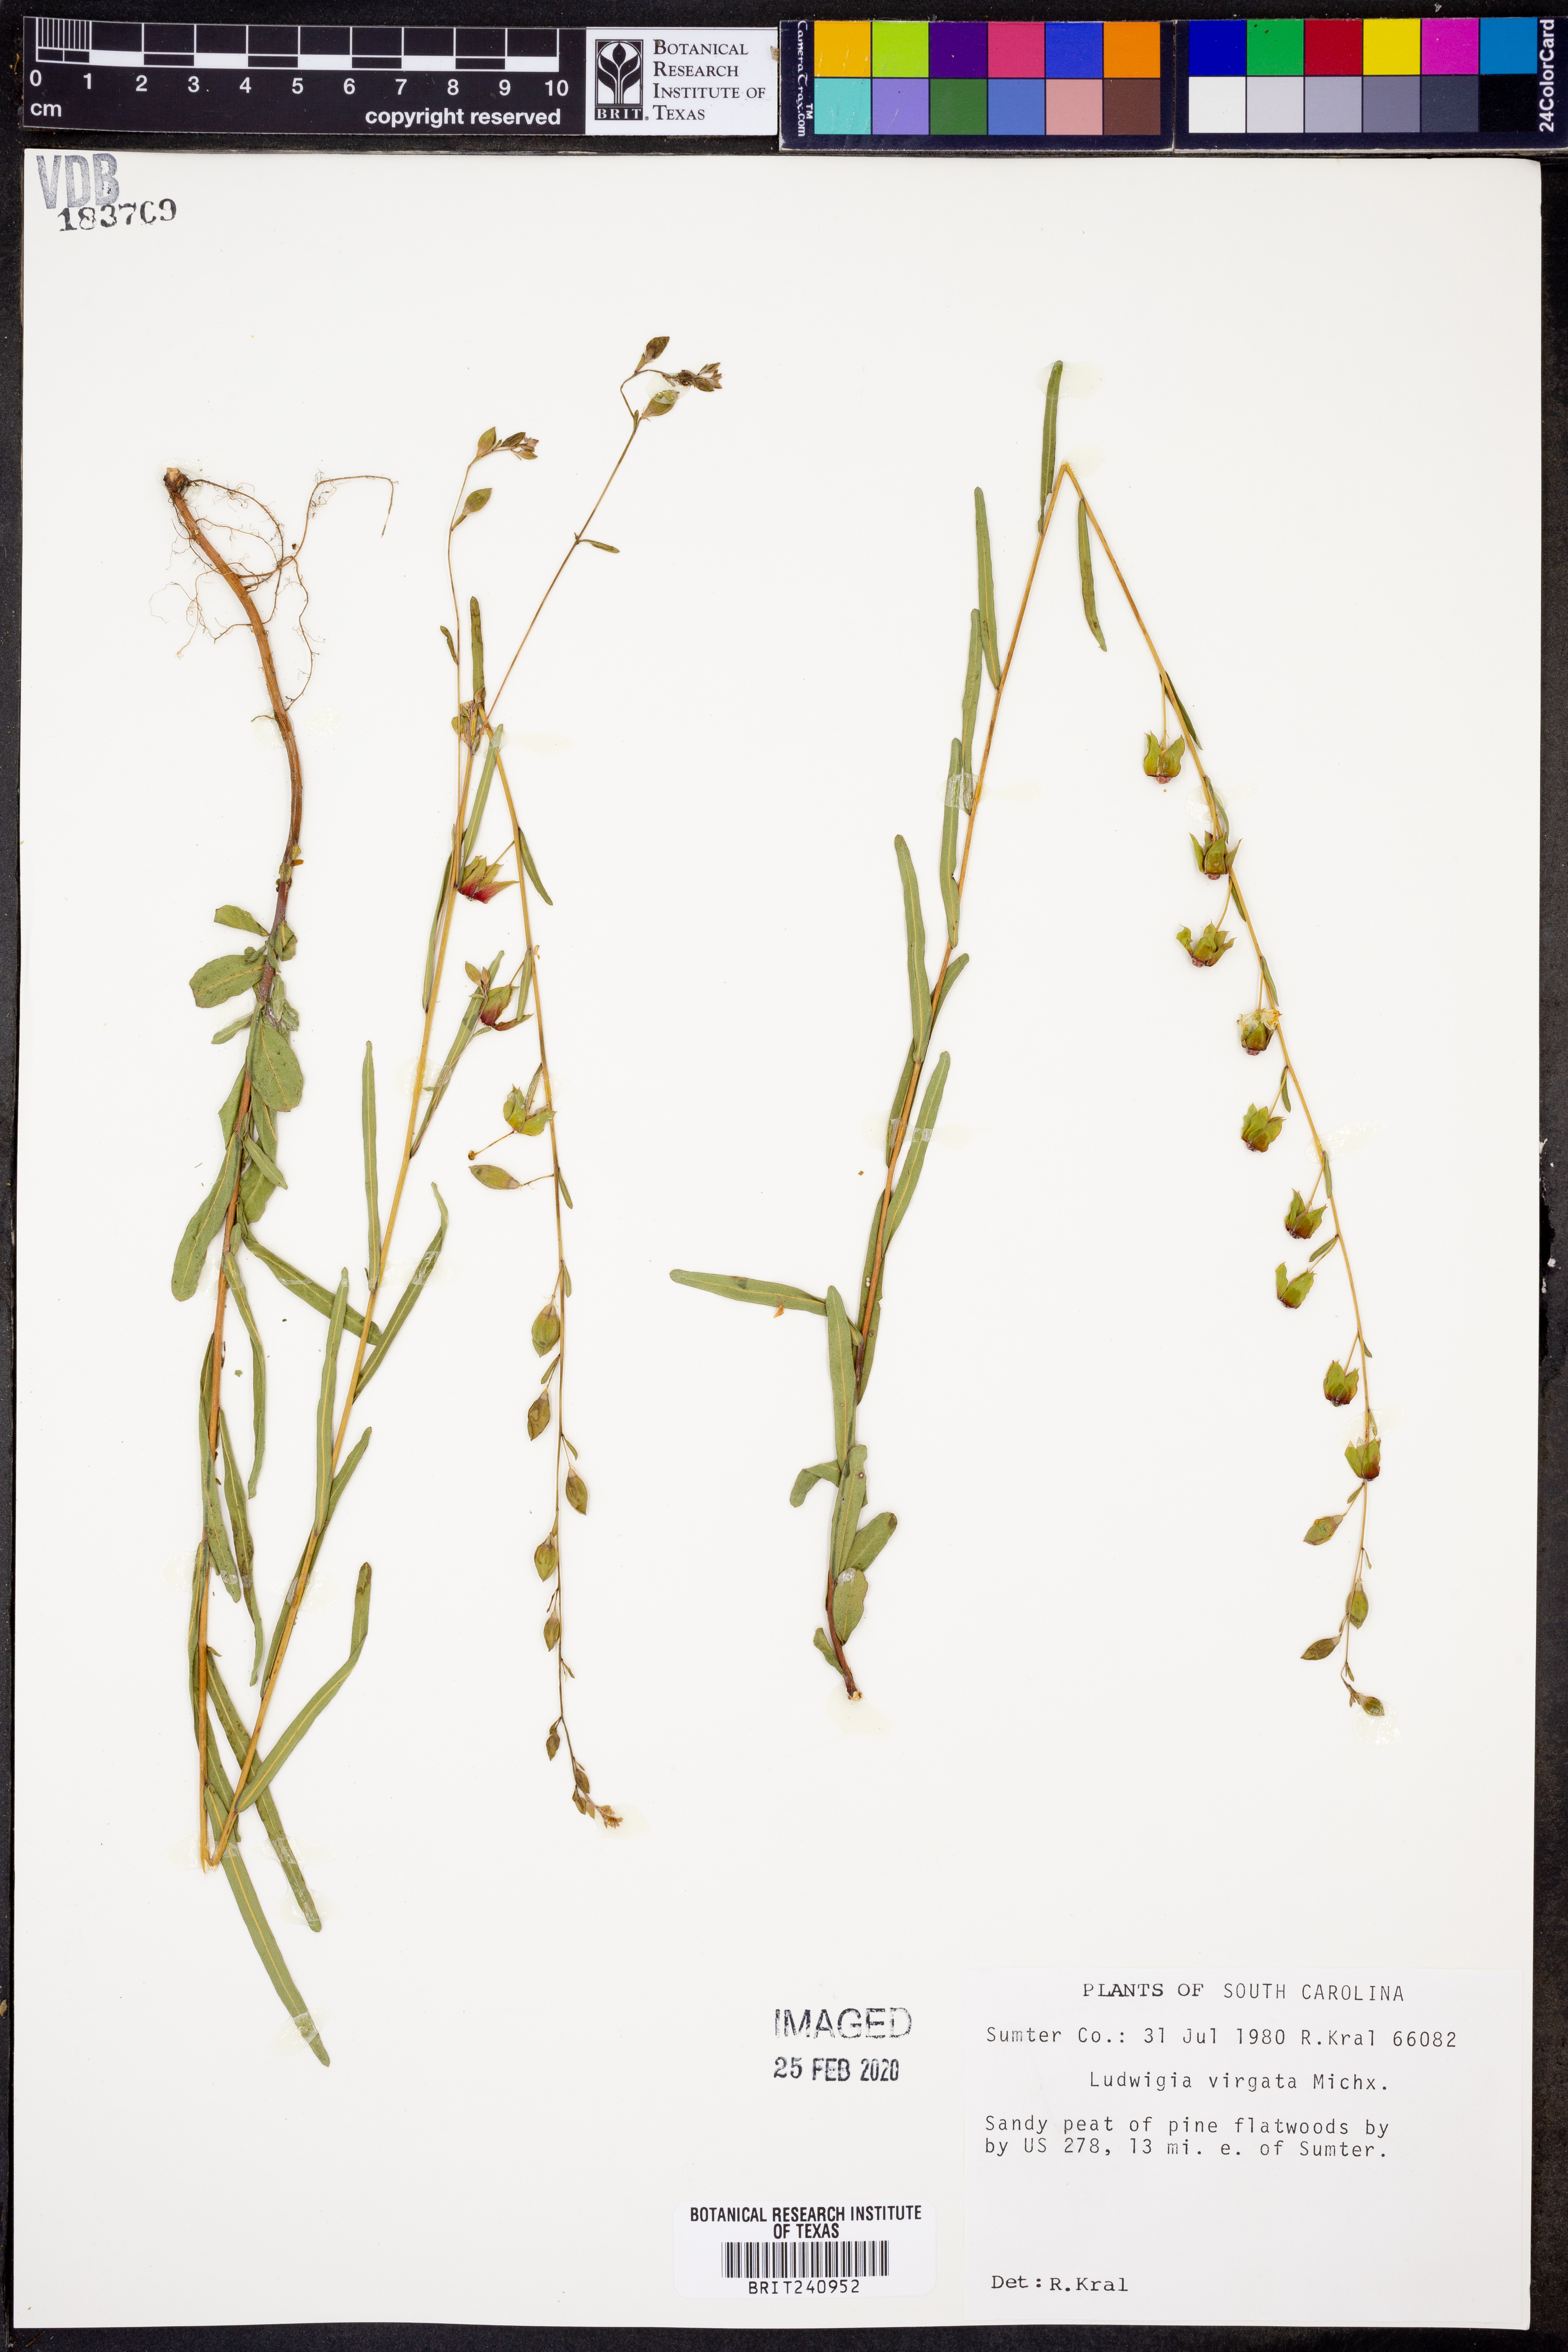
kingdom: Plantae
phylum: Tracheophyta
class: Magnoliopsida
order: Myrtales
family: Onagraceae
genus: Ludwigia
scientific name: Ludwigia virgata
